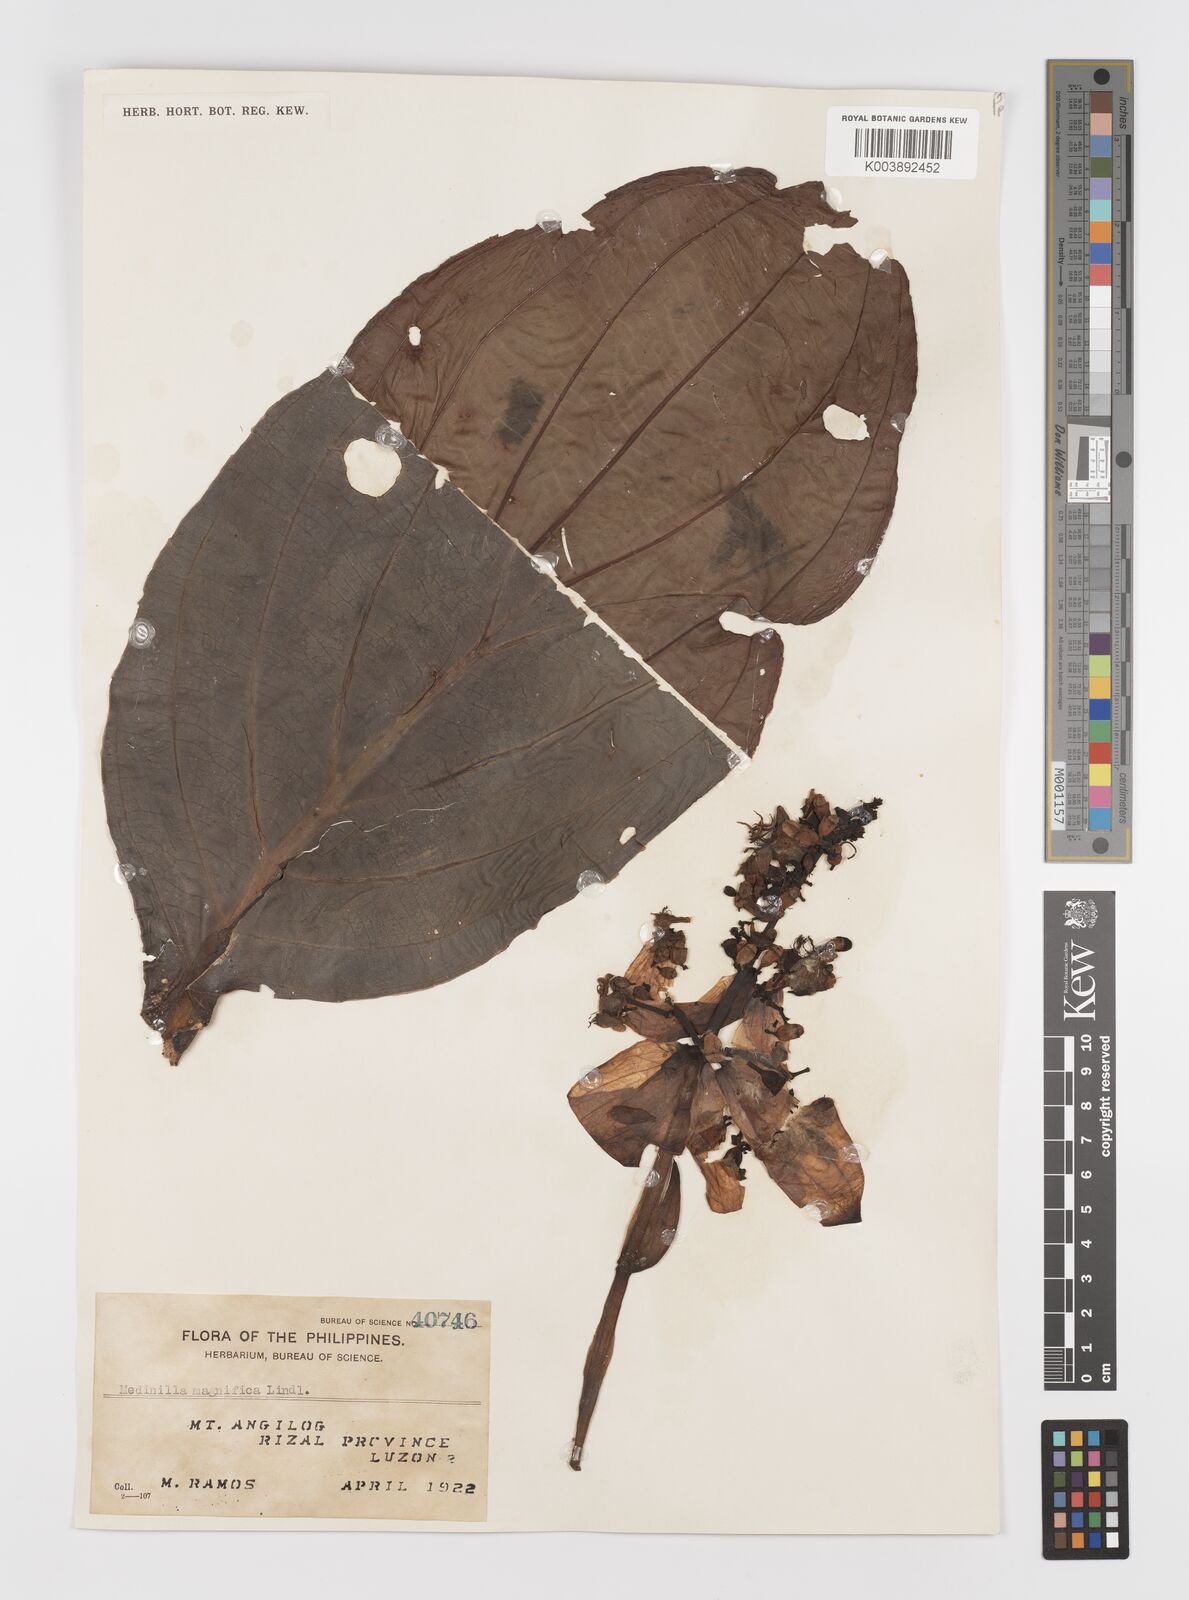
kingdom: Plantae
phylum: Tracheophyta
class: Magnoliopsida
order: Myrtales
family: Melastomataceae
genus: Medinilla
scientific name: Medinilla magnifica
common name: Showy medinilla
